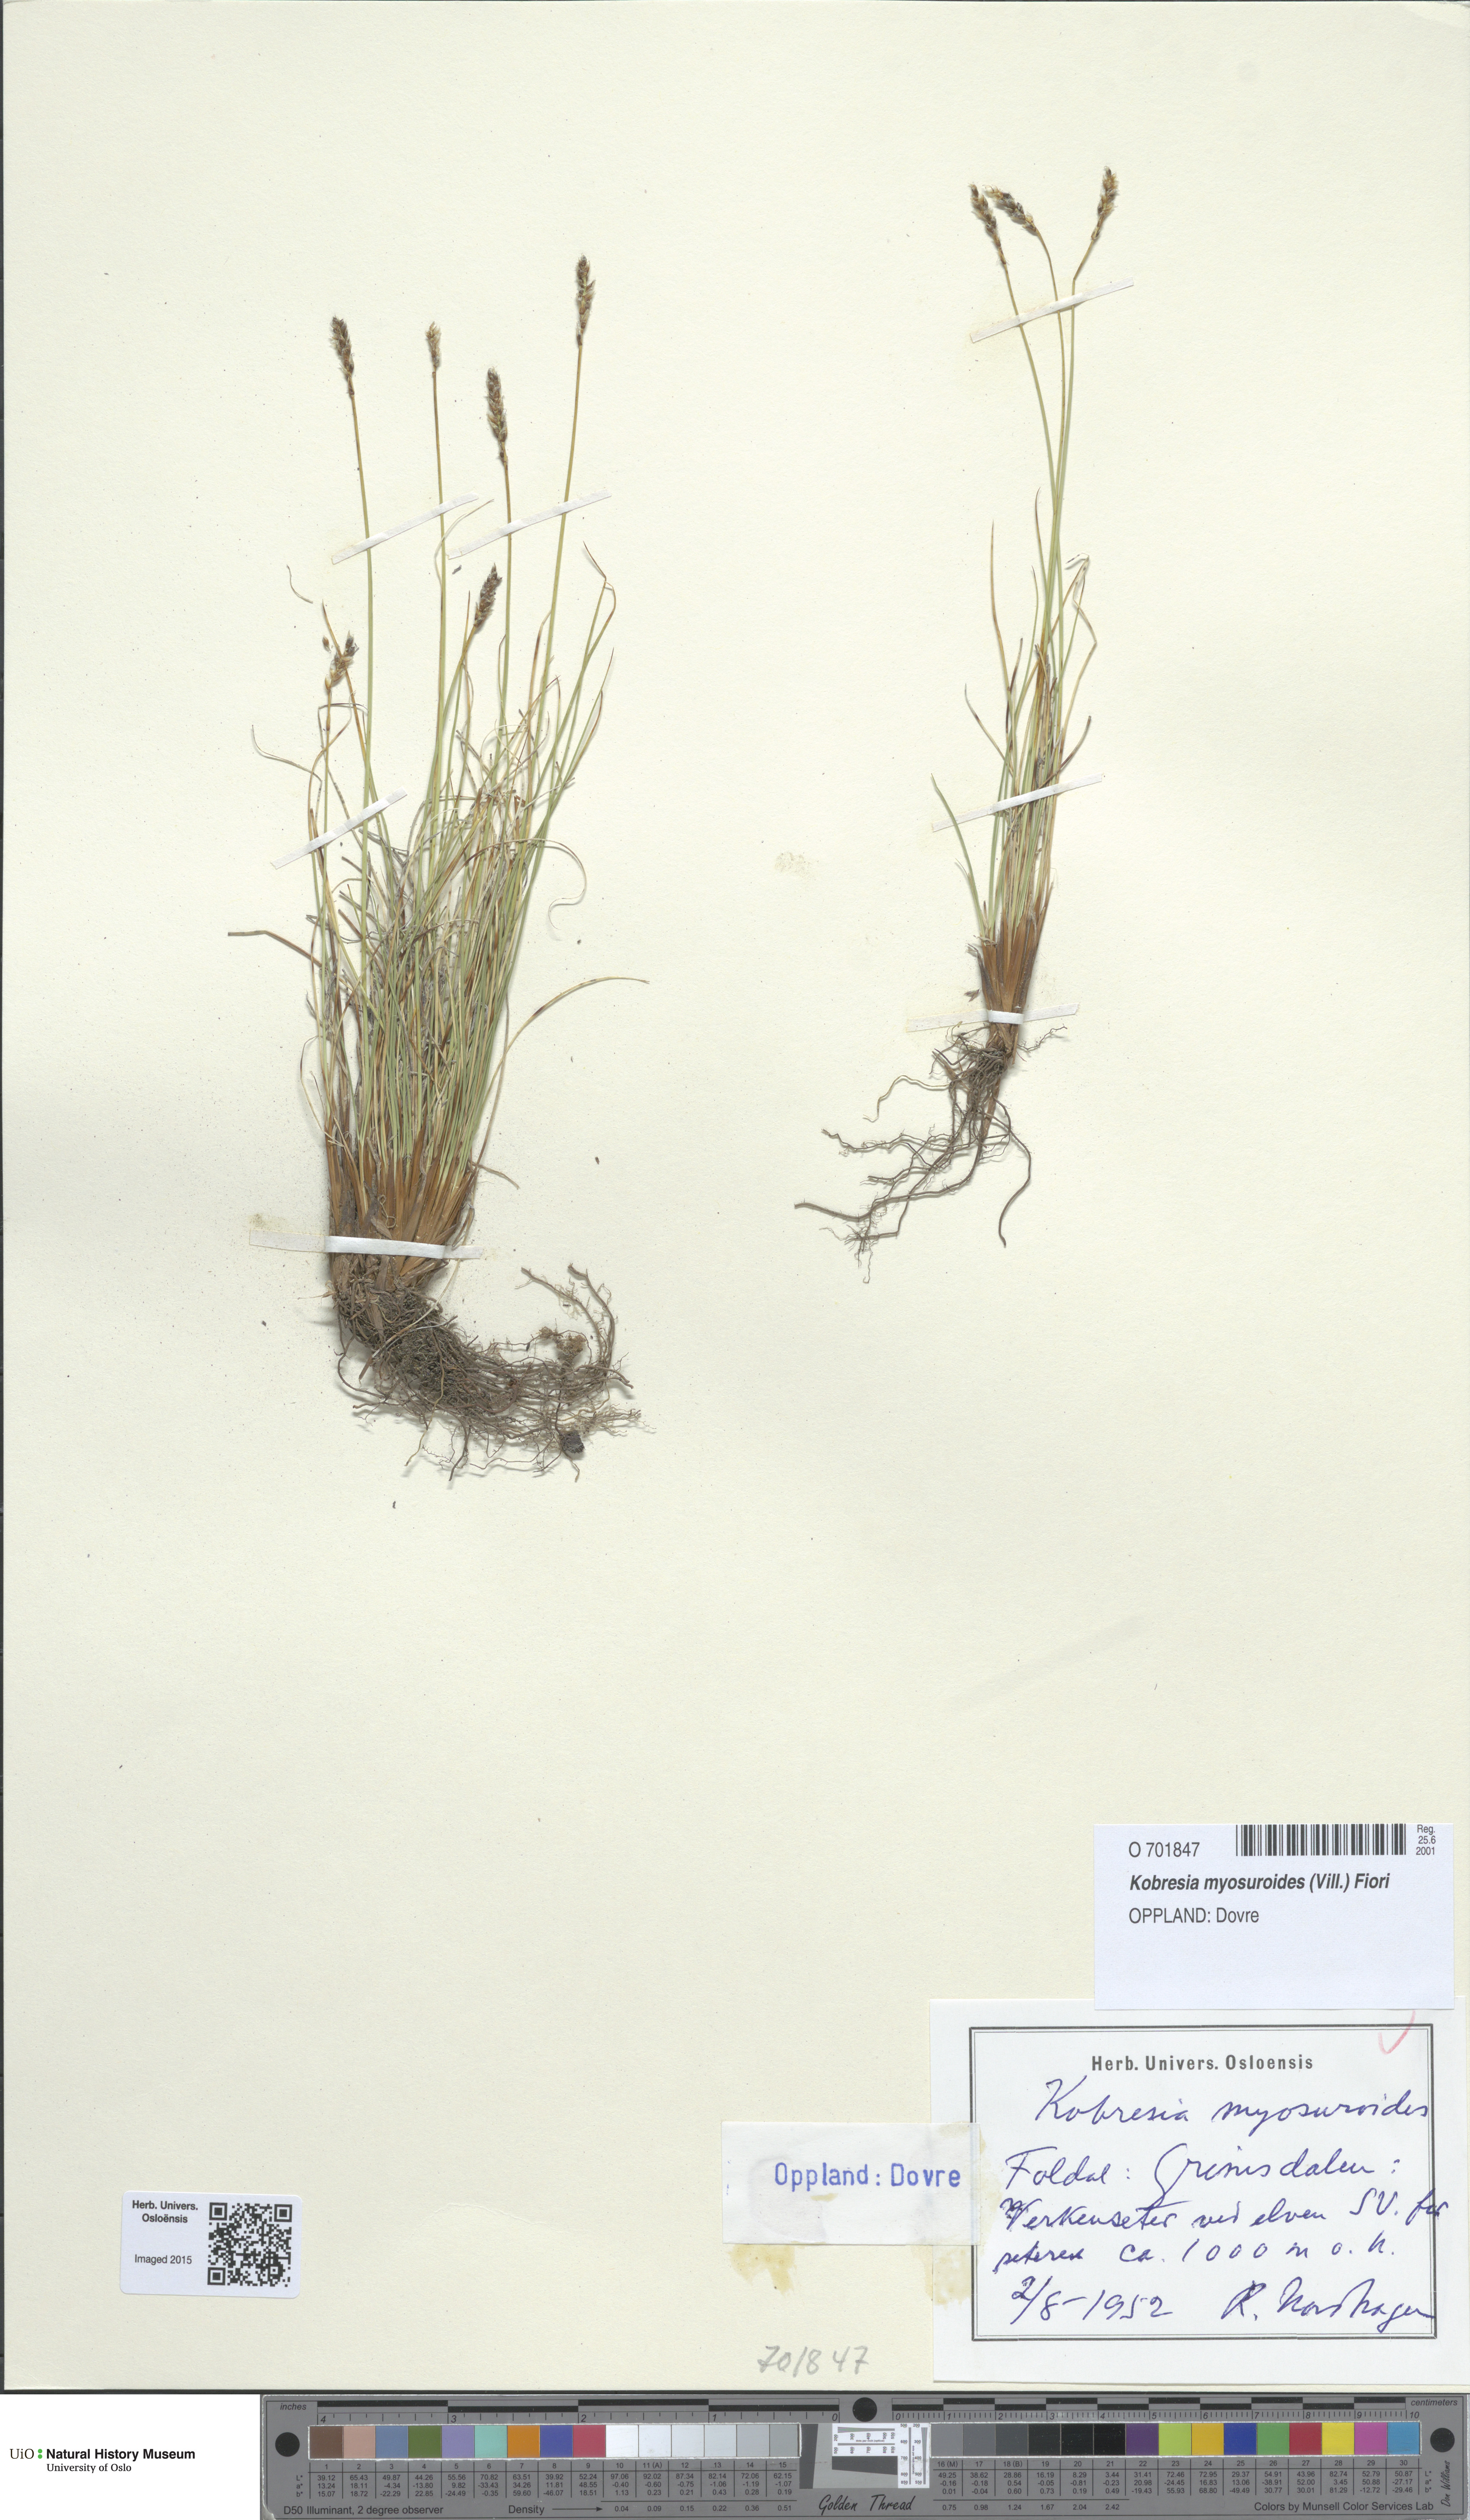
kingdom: Plantae
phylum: Tracheophyta
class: Liliopsida
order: Poales
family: Cyperaceae
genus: Carex
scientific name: Carex myosuroides
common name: Bellard's bog sedge
